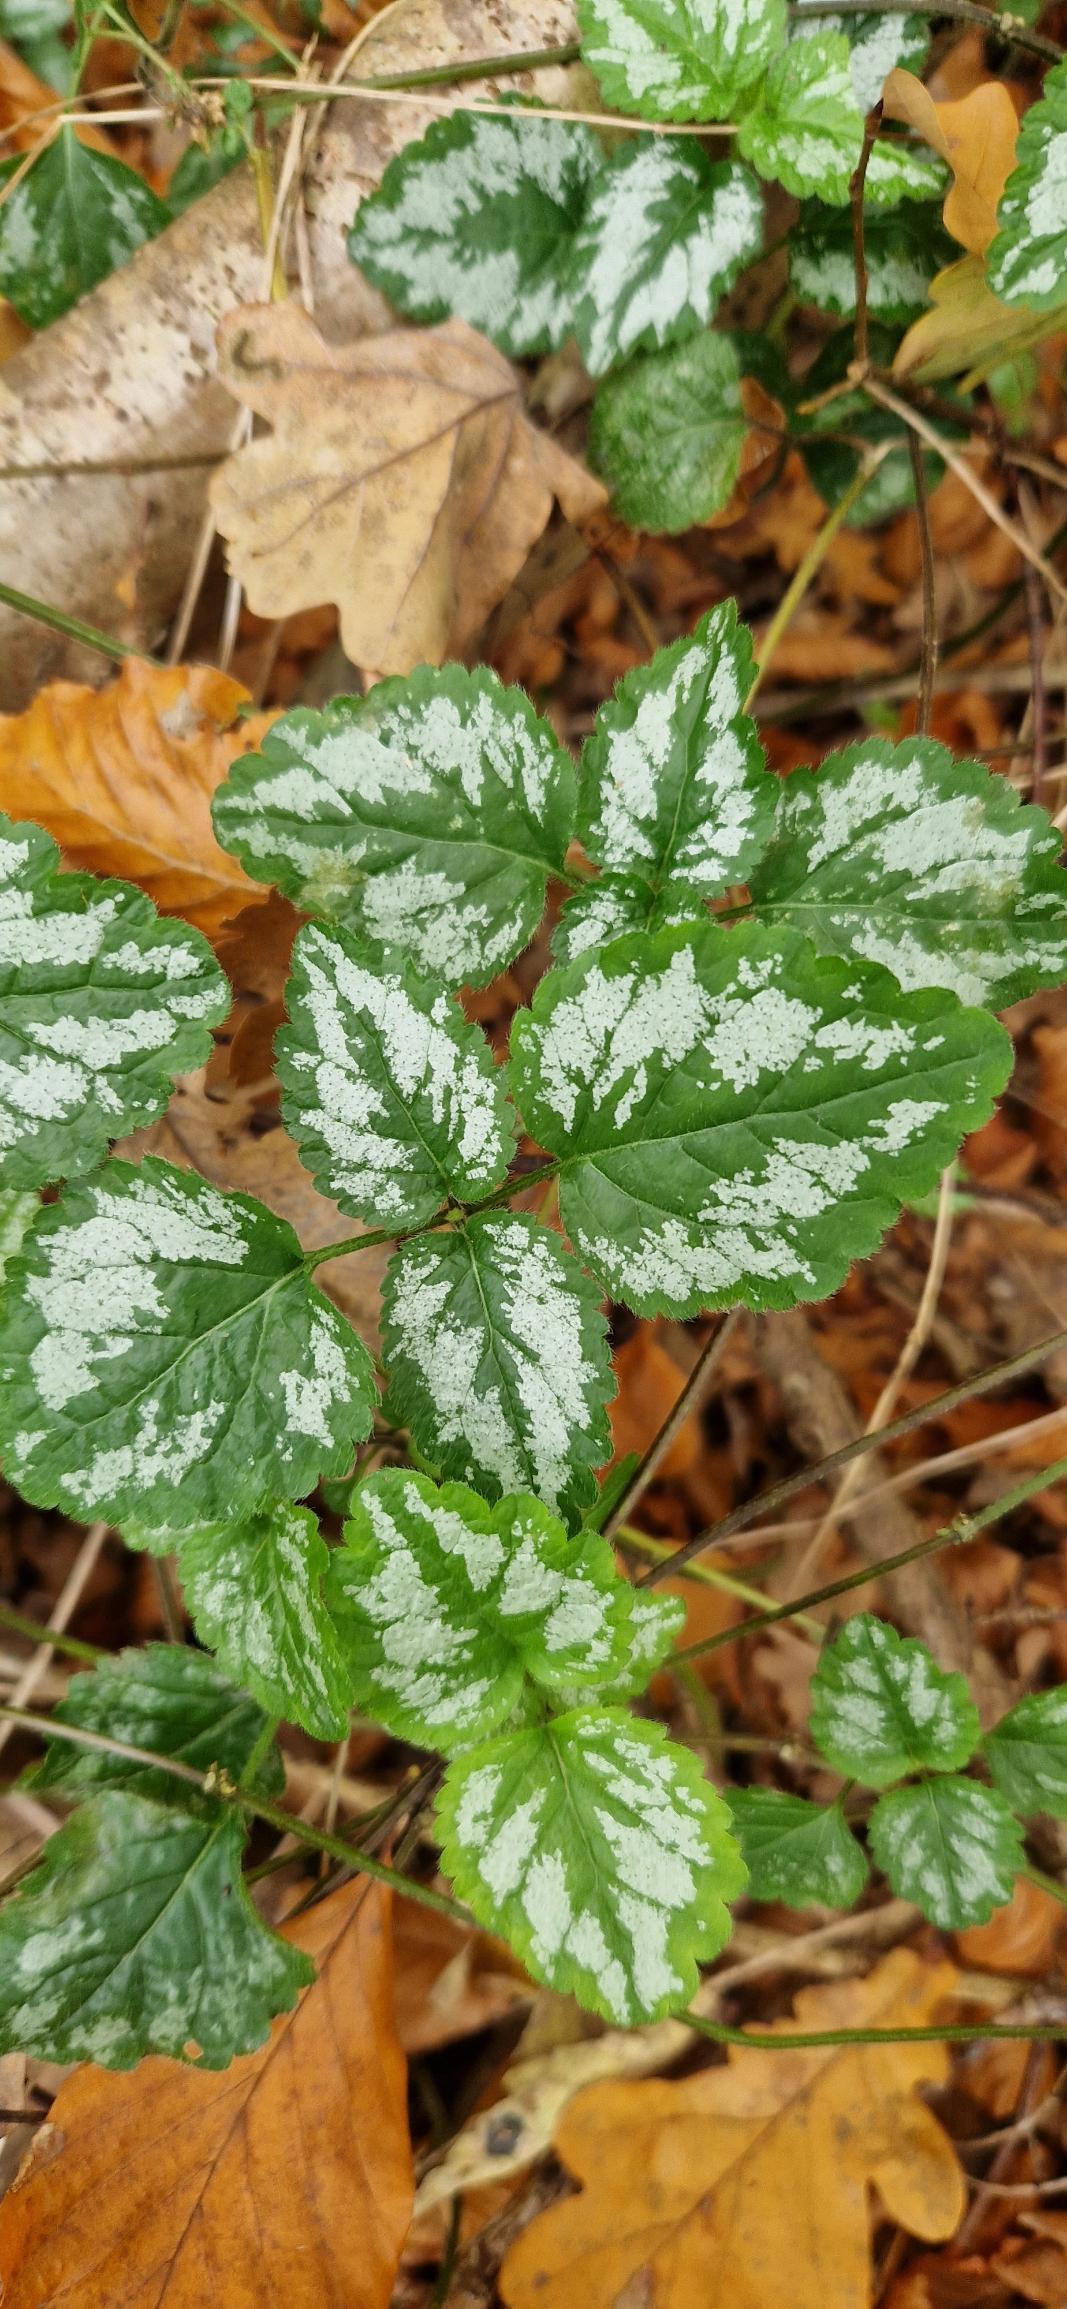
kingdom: Plantae
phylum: Tracheophyta
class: Magnoliopsida
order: Lamiales
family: Lamiaceae
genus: Lamium
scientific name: Lamium galeobdolon
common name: Have-guldnælde
